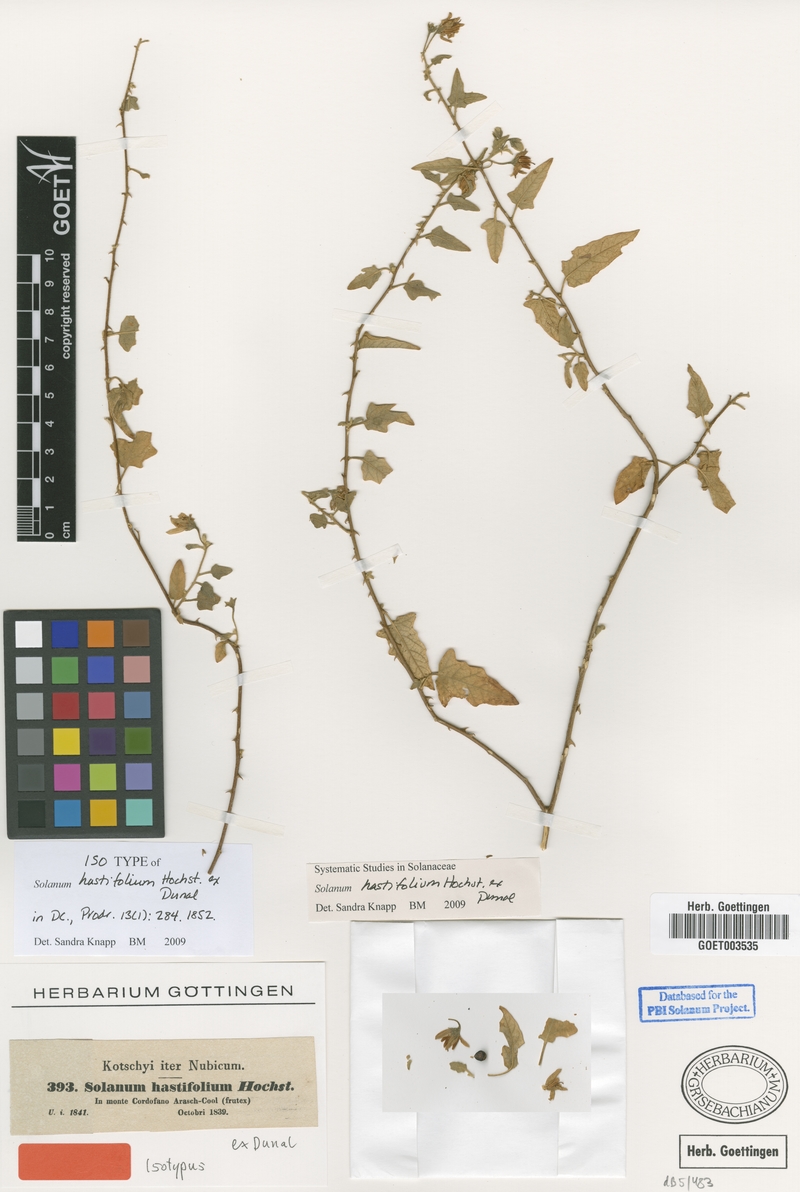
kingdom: Plantae
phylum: Tracheophyta
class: Magnoliopsida
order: Solanales
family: Solanaceae
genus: Solanum
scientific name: Solanum hastifolium
